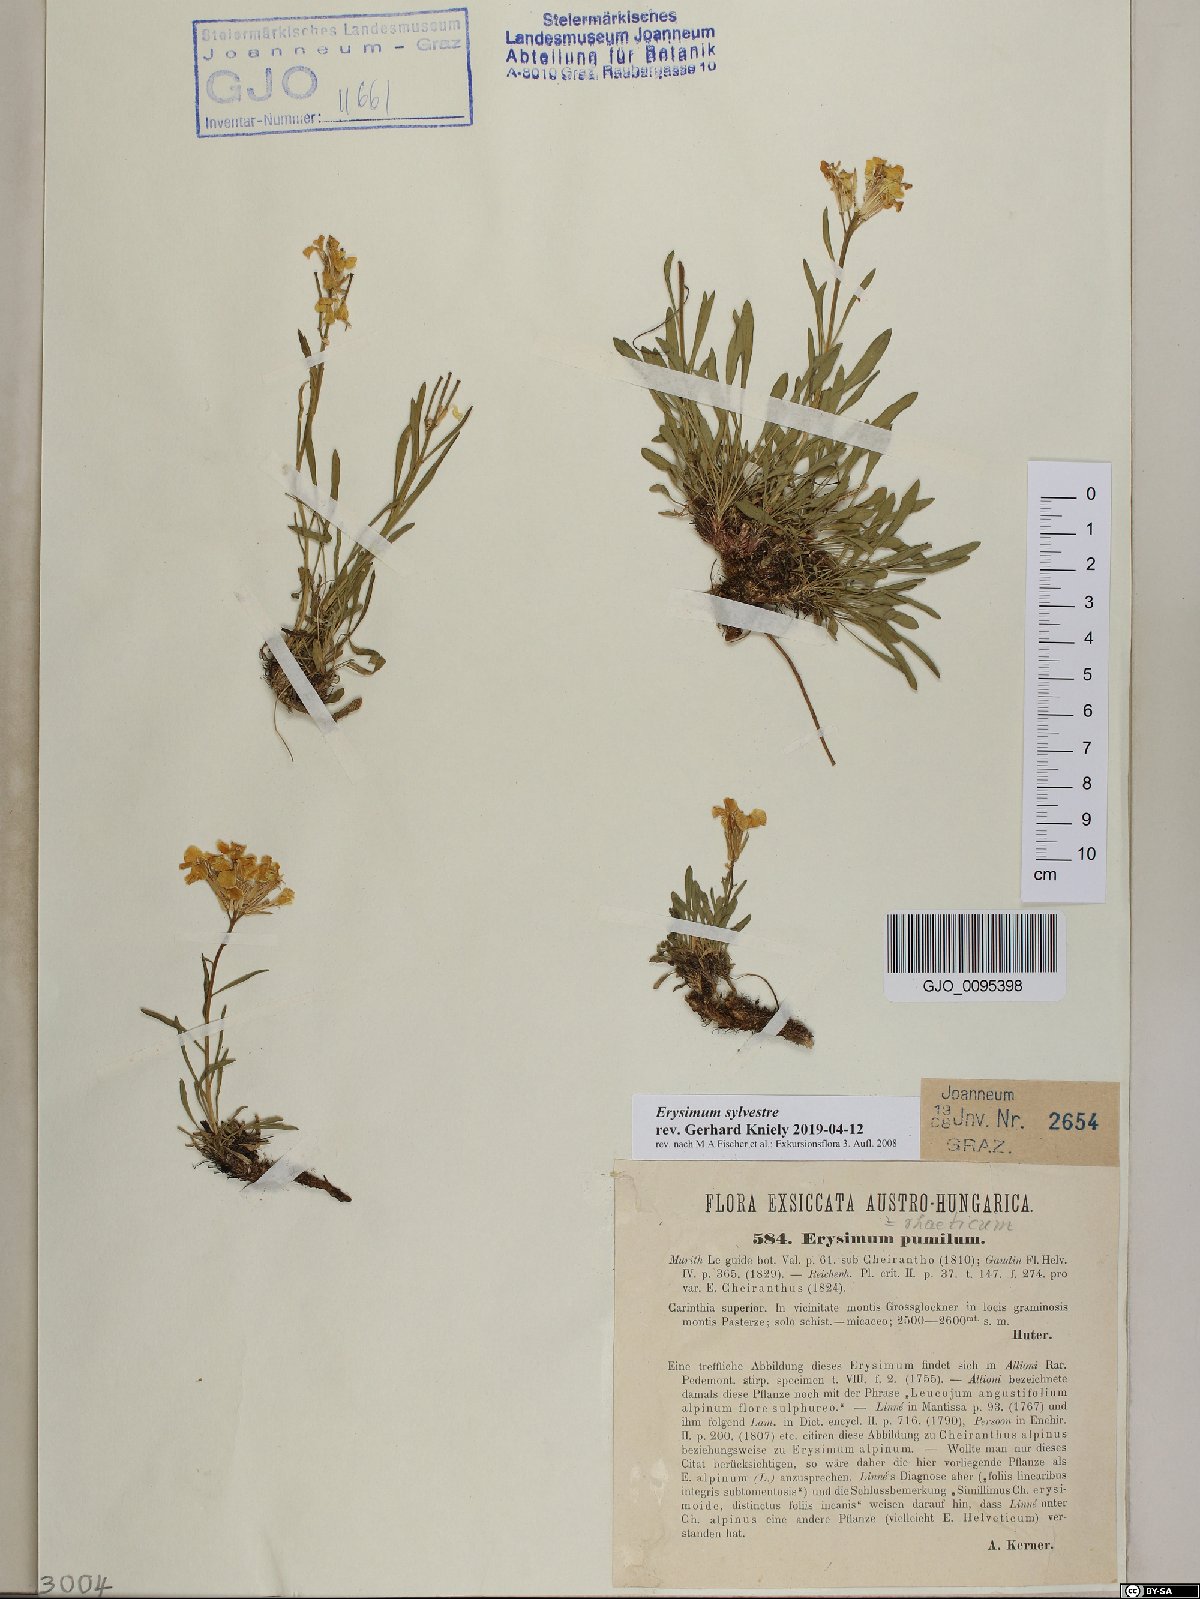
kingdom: Plantae
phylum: Tracheophyta
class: Magnoliopsida
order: Brassicales
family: Brassicaceae
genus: Erysimum
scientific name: Erysimum sylvestre
